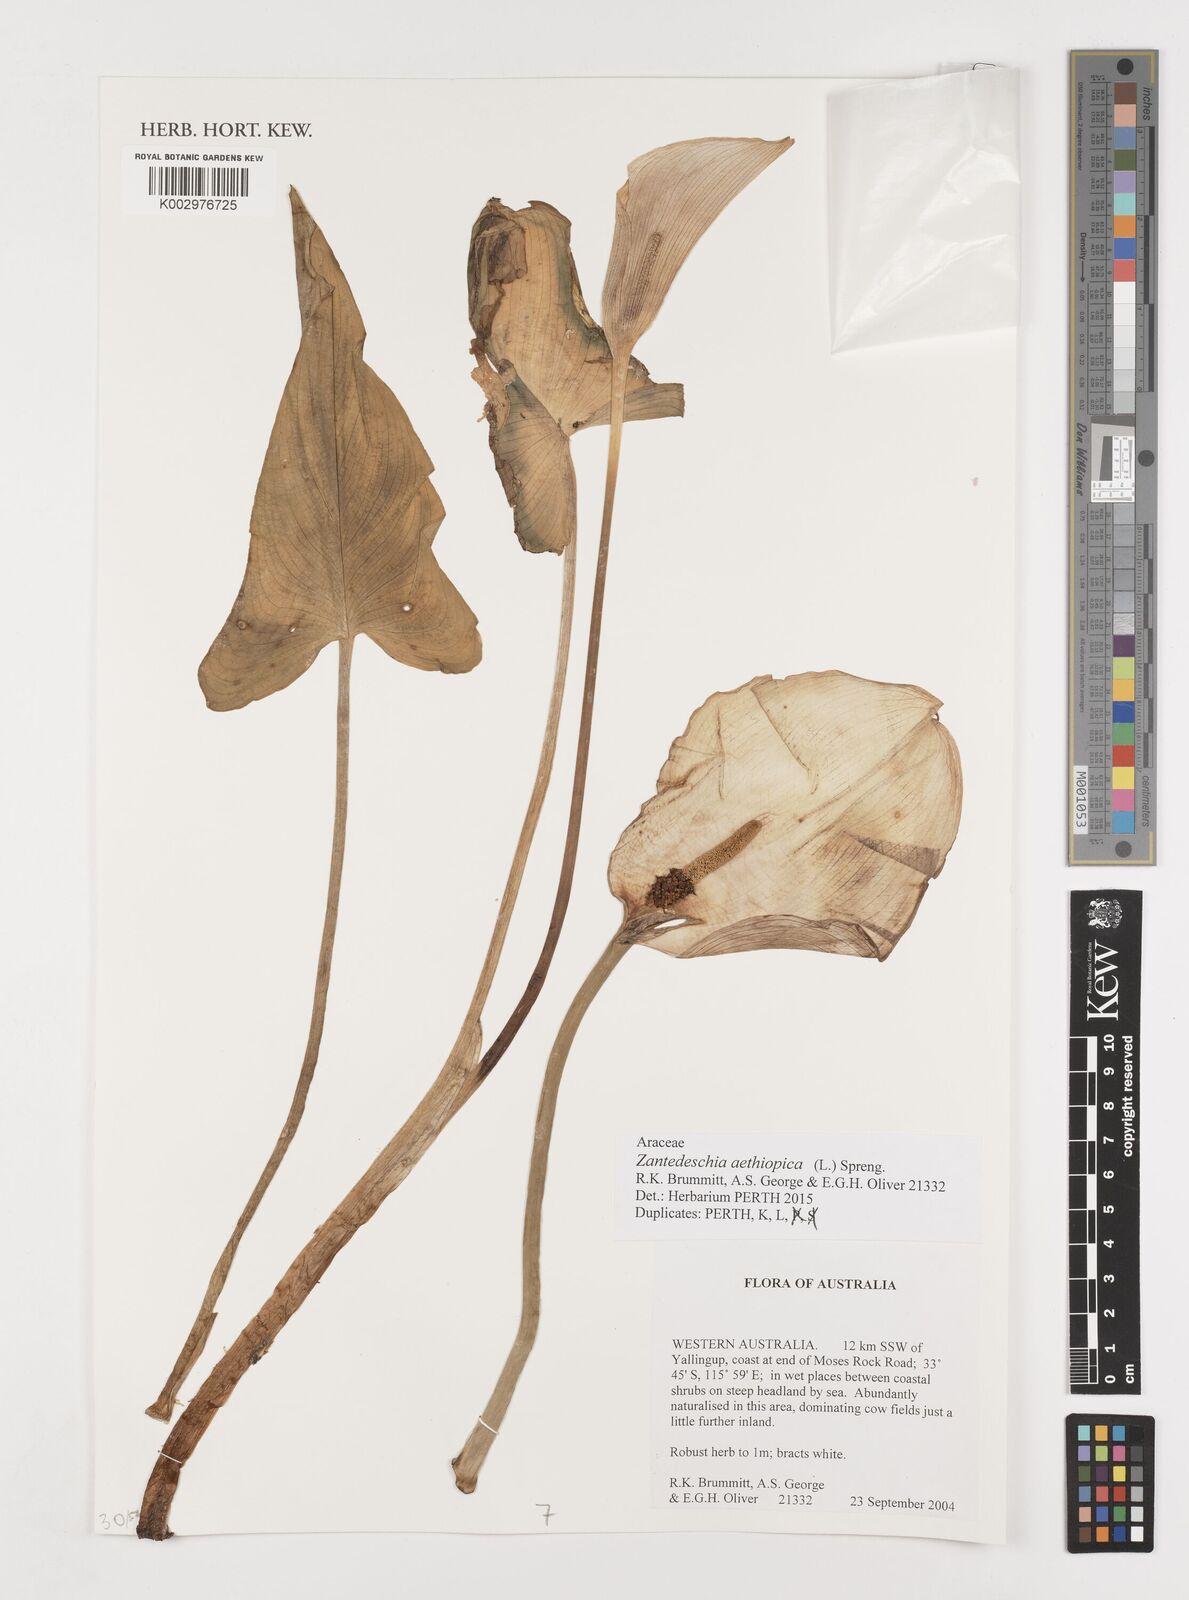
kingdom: Plantae
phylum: Tracheophyta
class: Liliopsida
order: Alismatales
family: Araceae
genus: Zantedeschia
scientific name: Zantedeschia aethiopica
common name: Altar-lily
